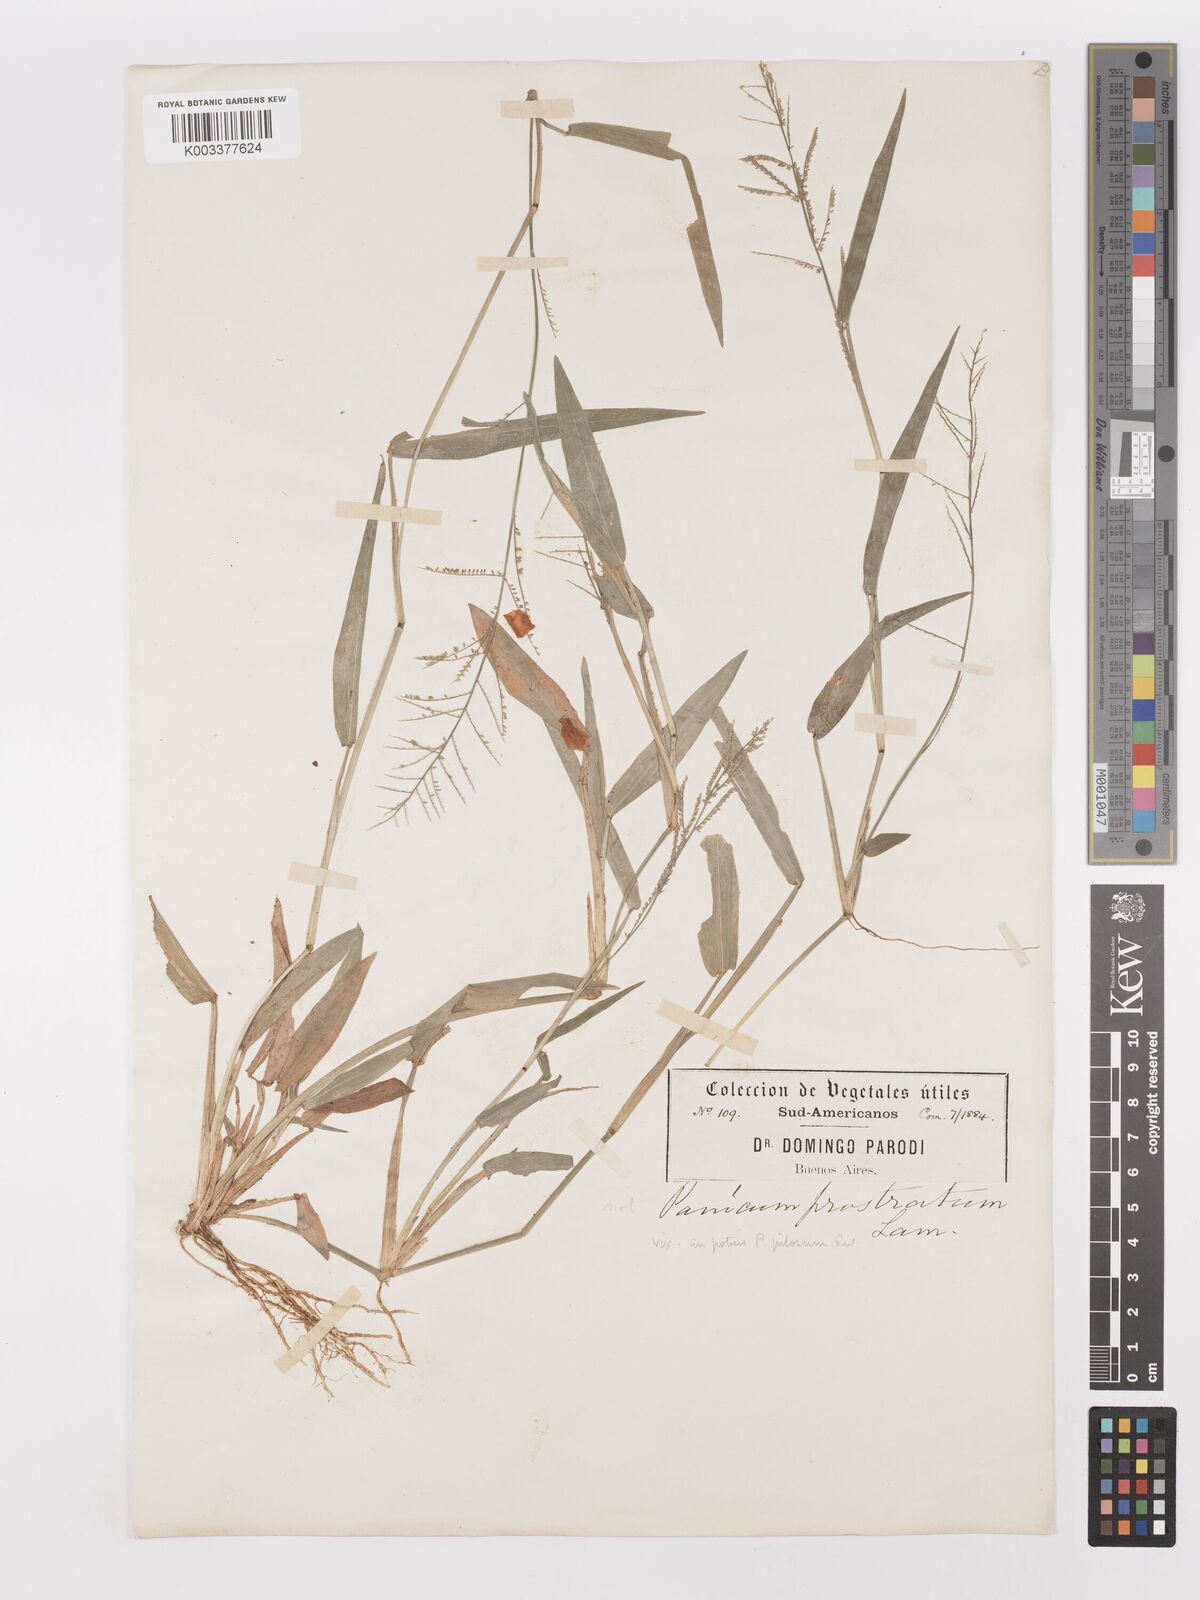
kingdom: Plantae
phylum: Tracheophyta
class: Liliopsida
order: Poales
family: Poaceae
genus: Panicum
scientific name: Panicum
